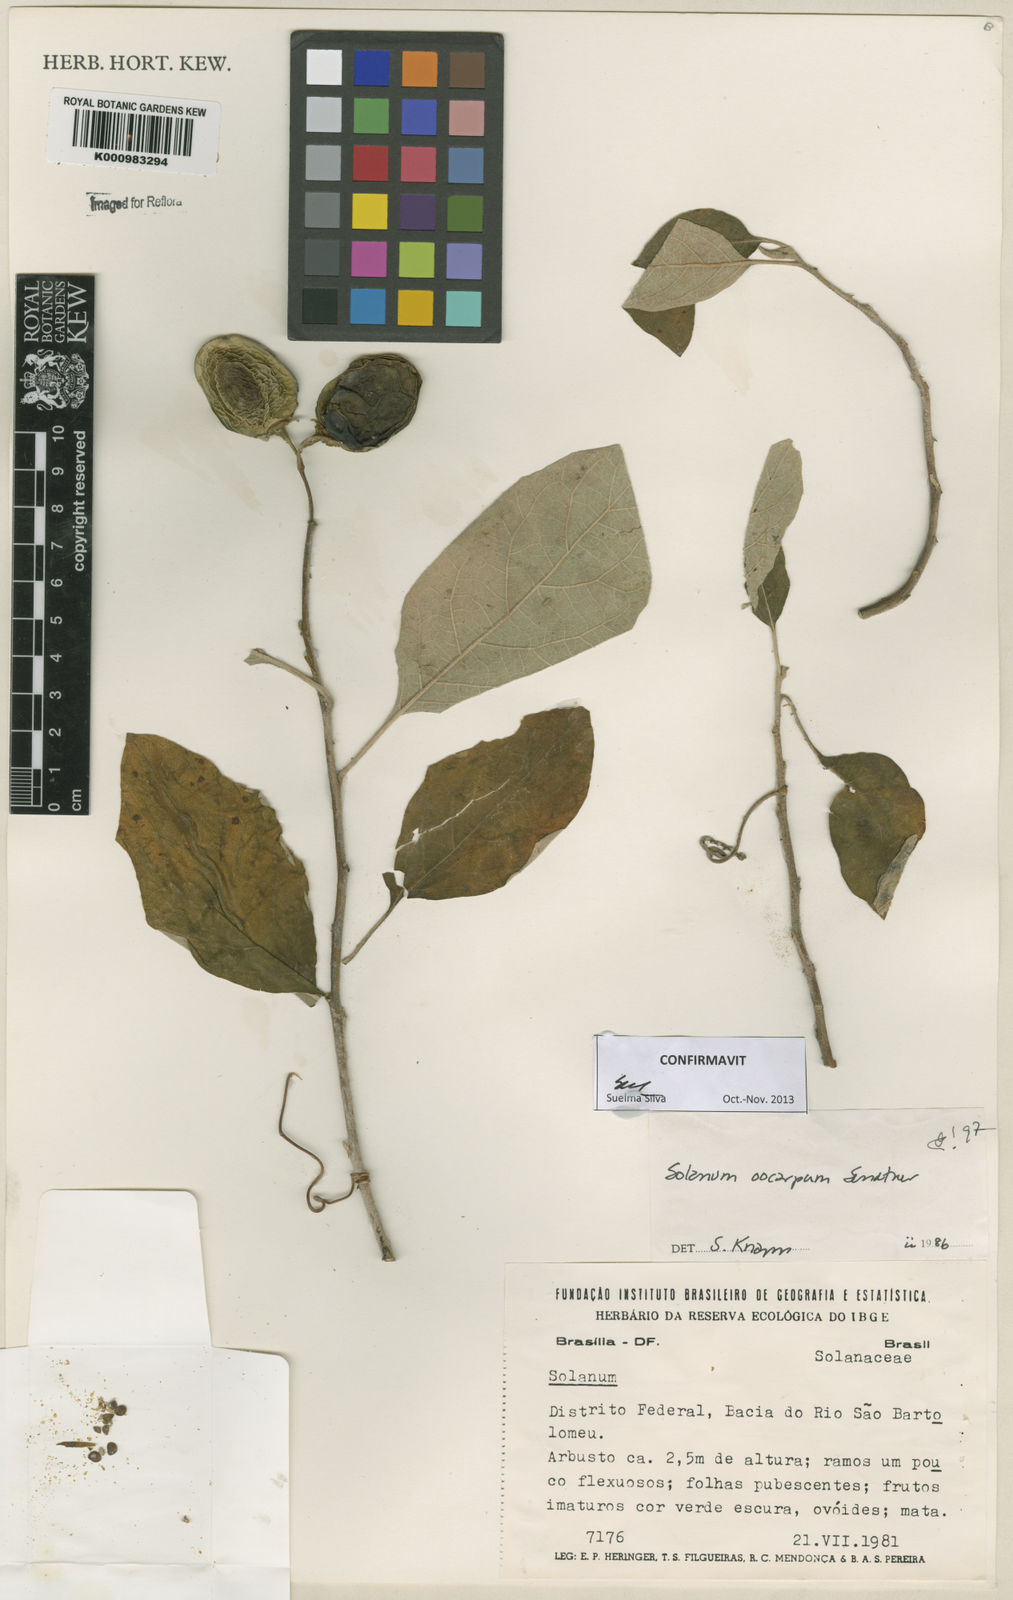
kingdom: Plantae
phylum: Tracheophyta
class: Magnoliopsida
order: Solanales
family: Solanaceae
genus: Solanum
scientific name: Solanum oocarpum
